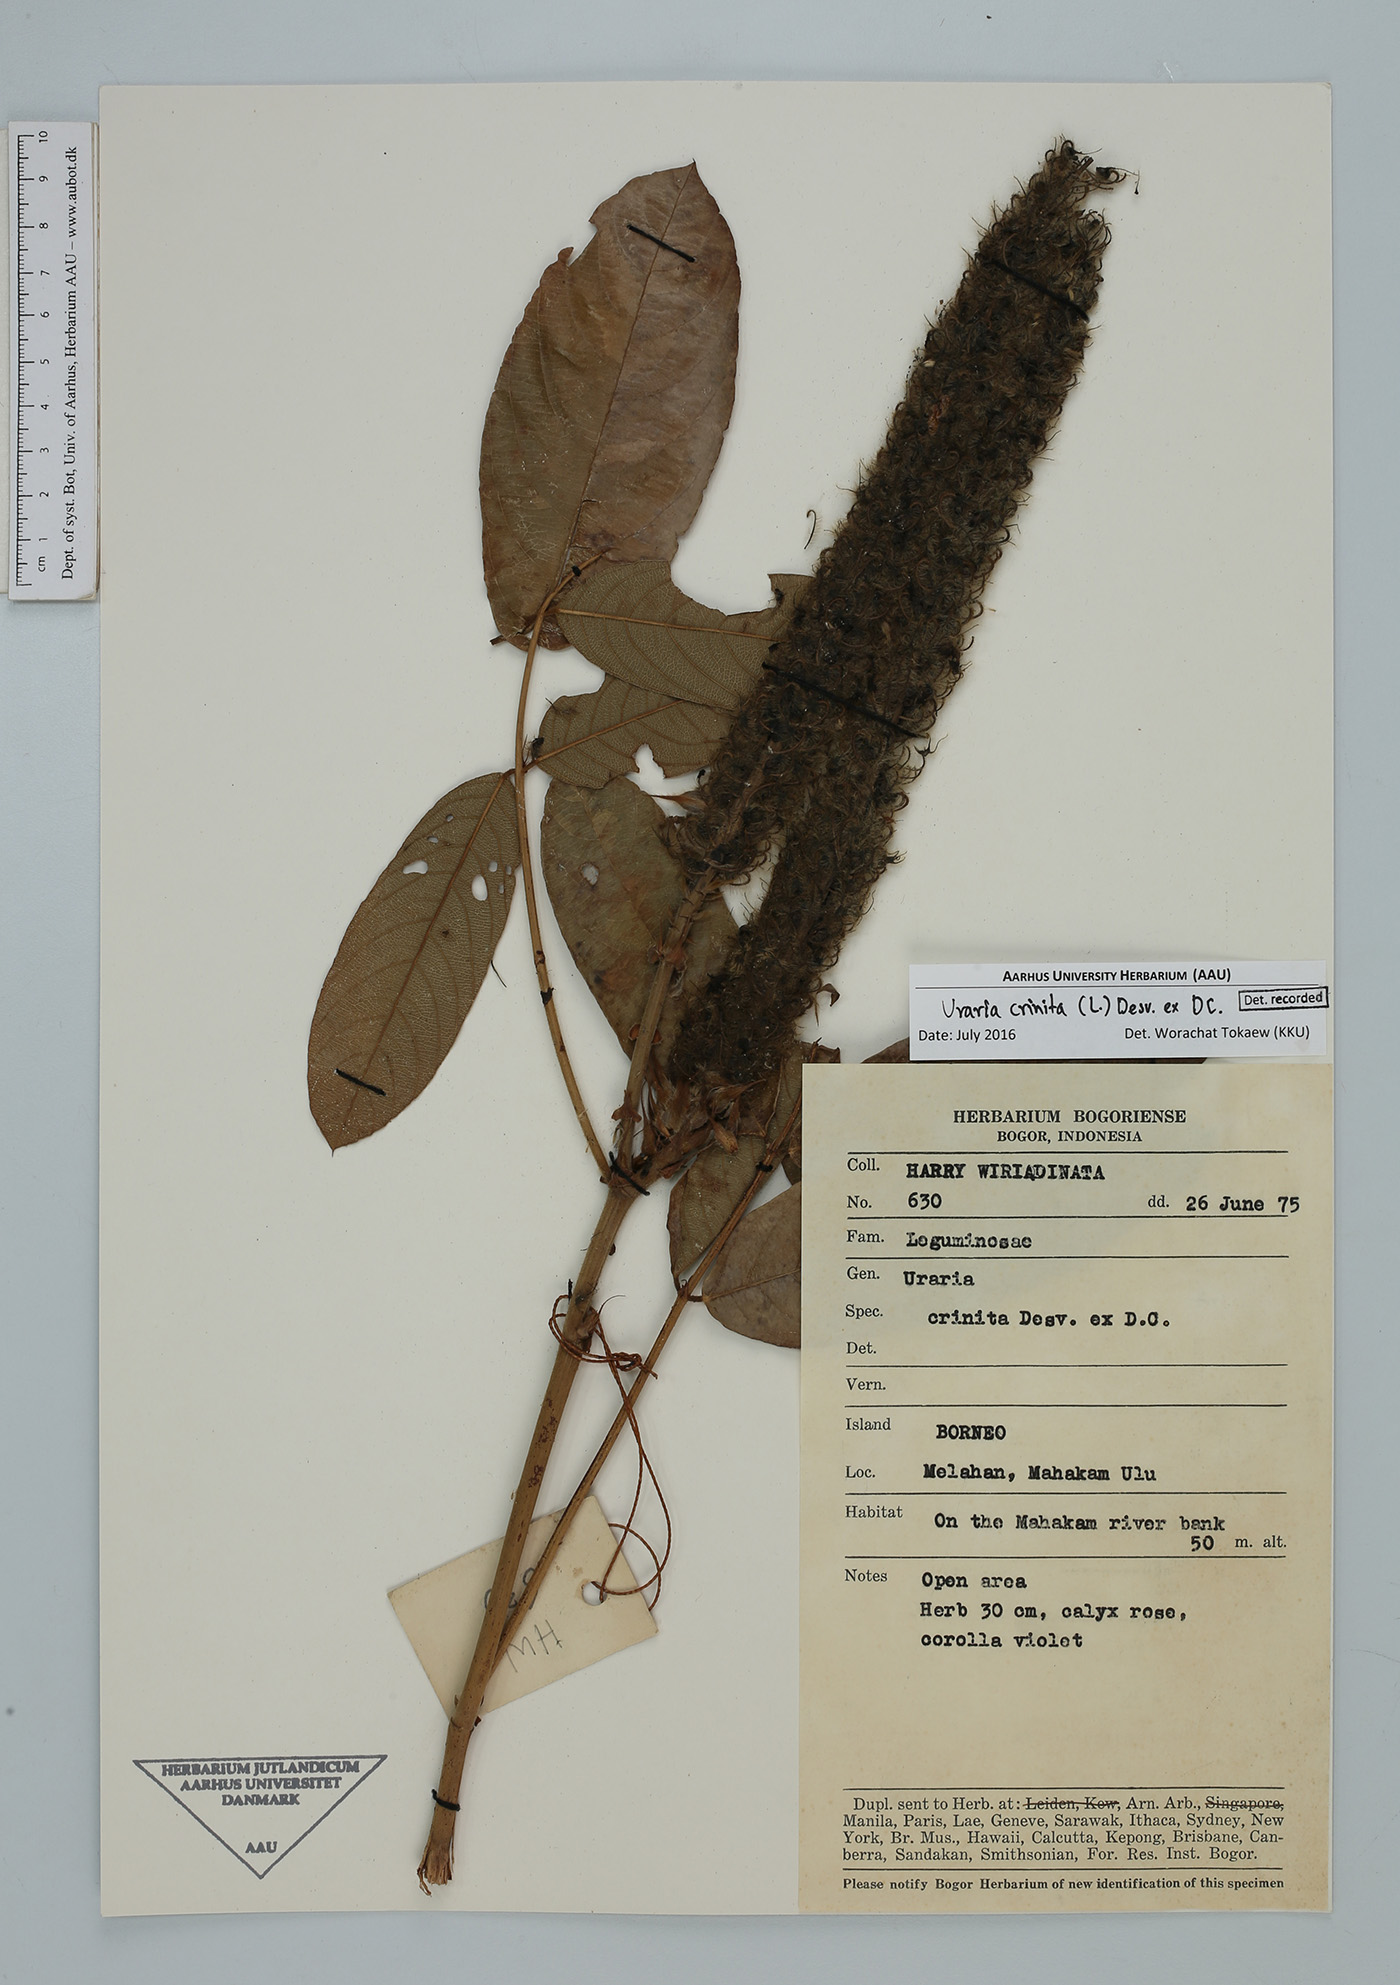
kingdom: Plantae
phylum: Tracheophyta
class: Magnoliopsida
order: Fabales
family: Fabaceae
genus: Uraria
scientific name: Uraria crinita
